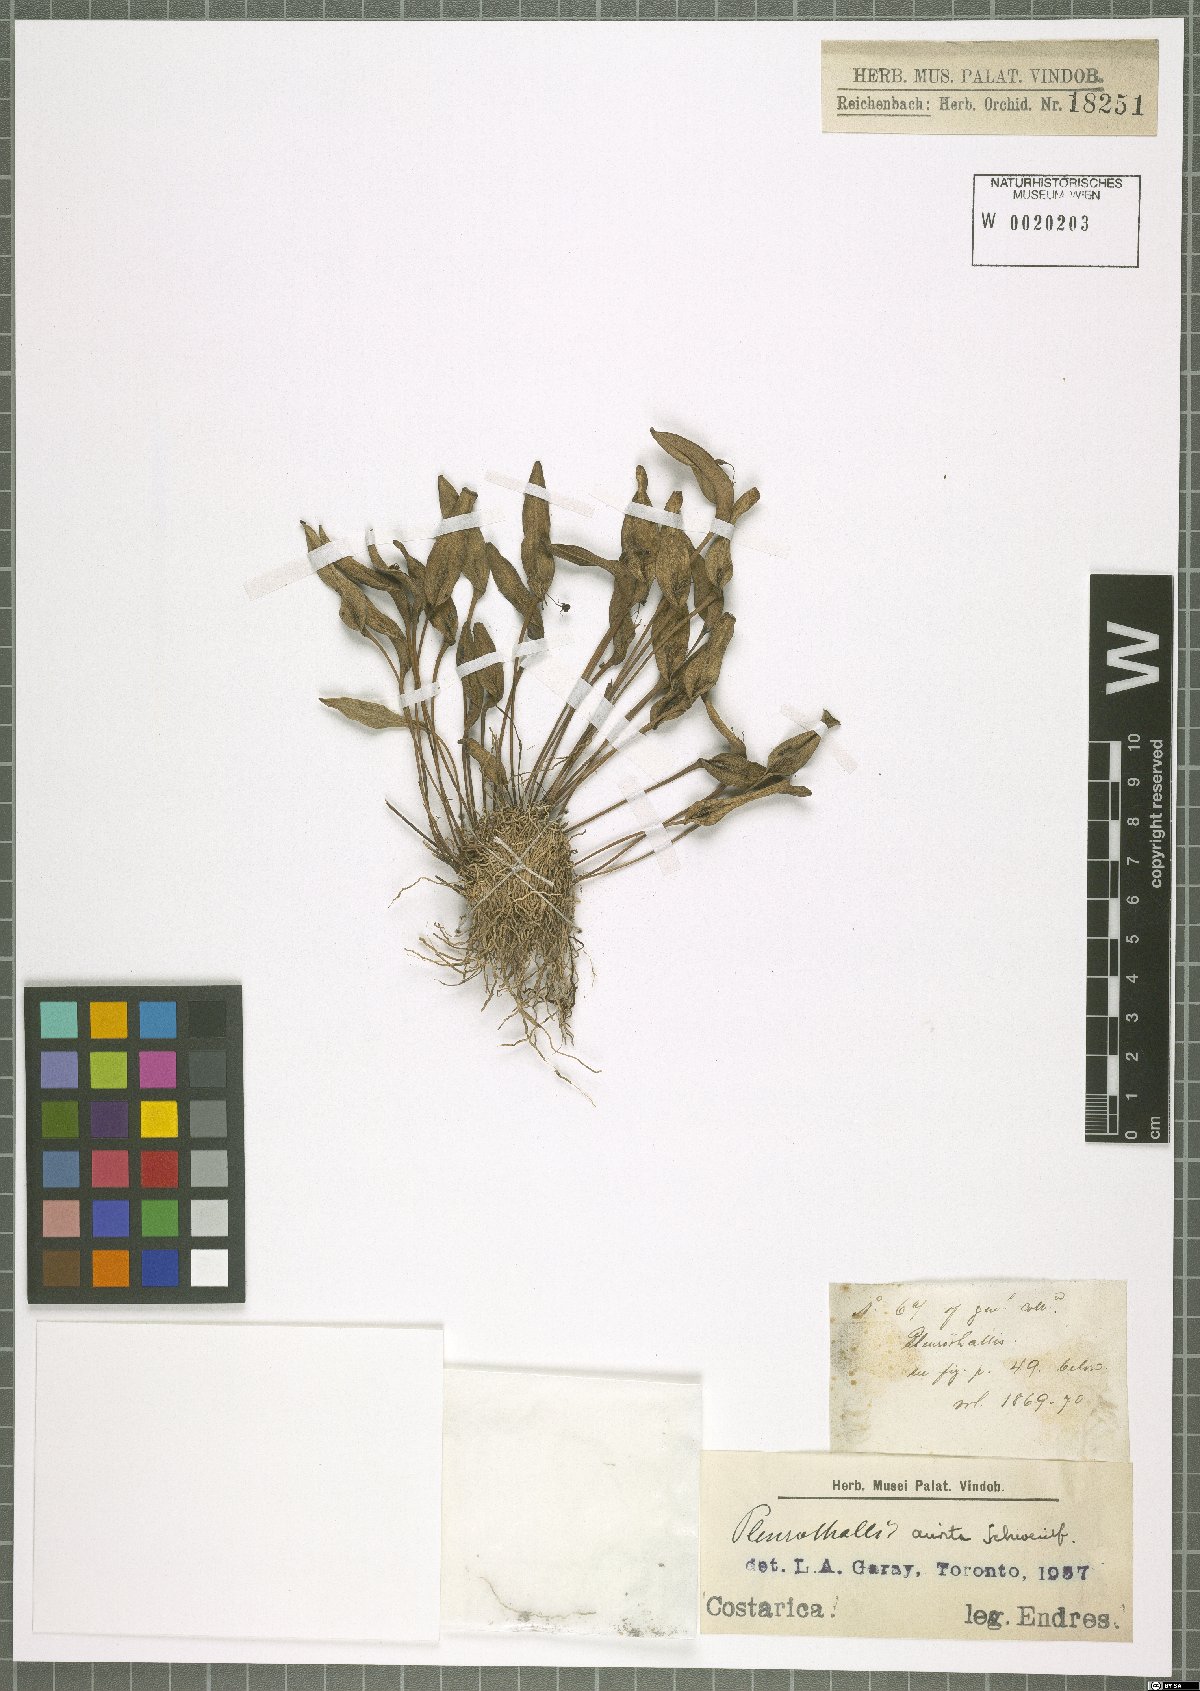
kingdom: Plantae
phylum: Tracheophyta
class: Liliopsida
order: Asparagales
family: Orchidaceae
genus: Pleurothallis
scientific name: Pleurothallis aurita
